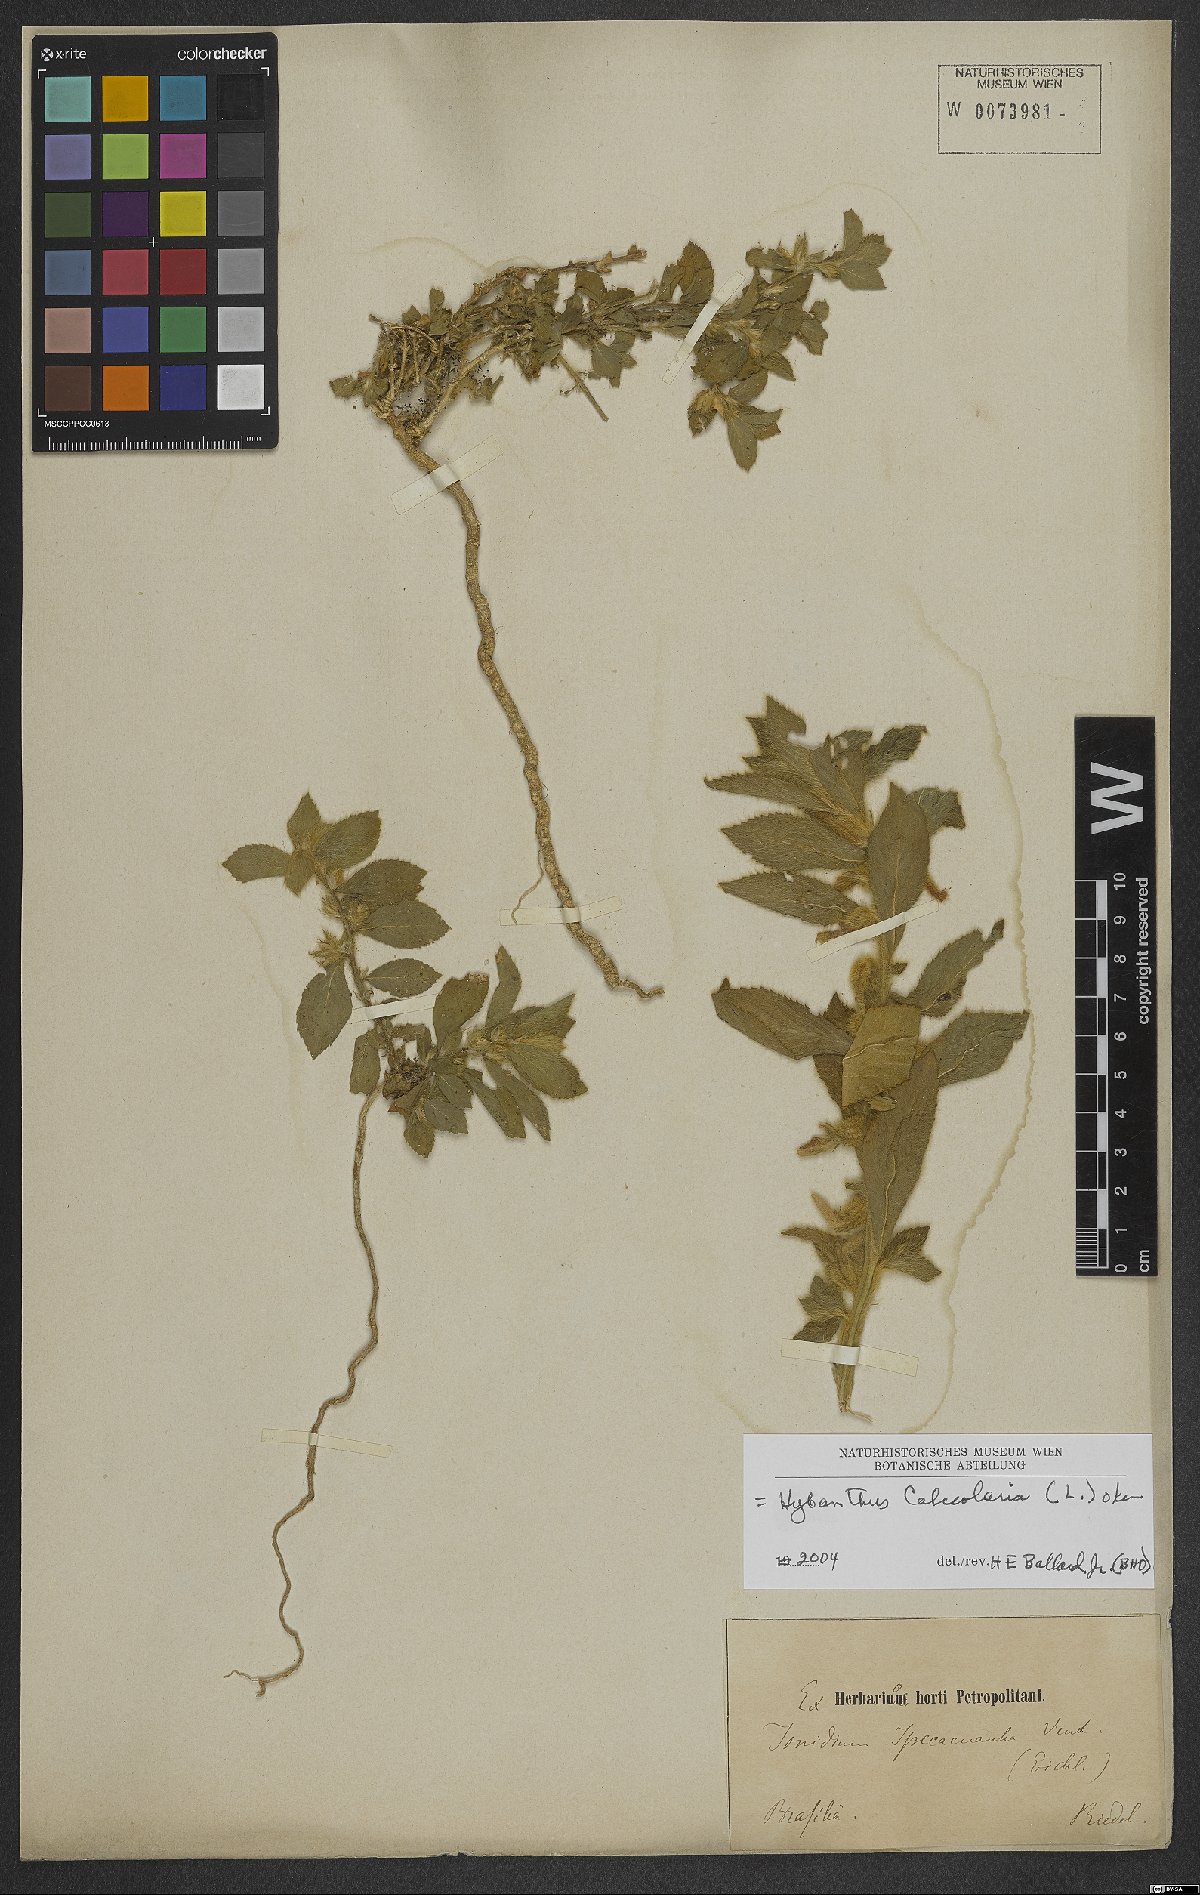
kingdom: Plantae
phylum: Tracheophyta
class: Magnoliopsida
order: Malpighiales
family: Violaceae
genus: Pombalia
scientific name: Pombalia calceolaria
